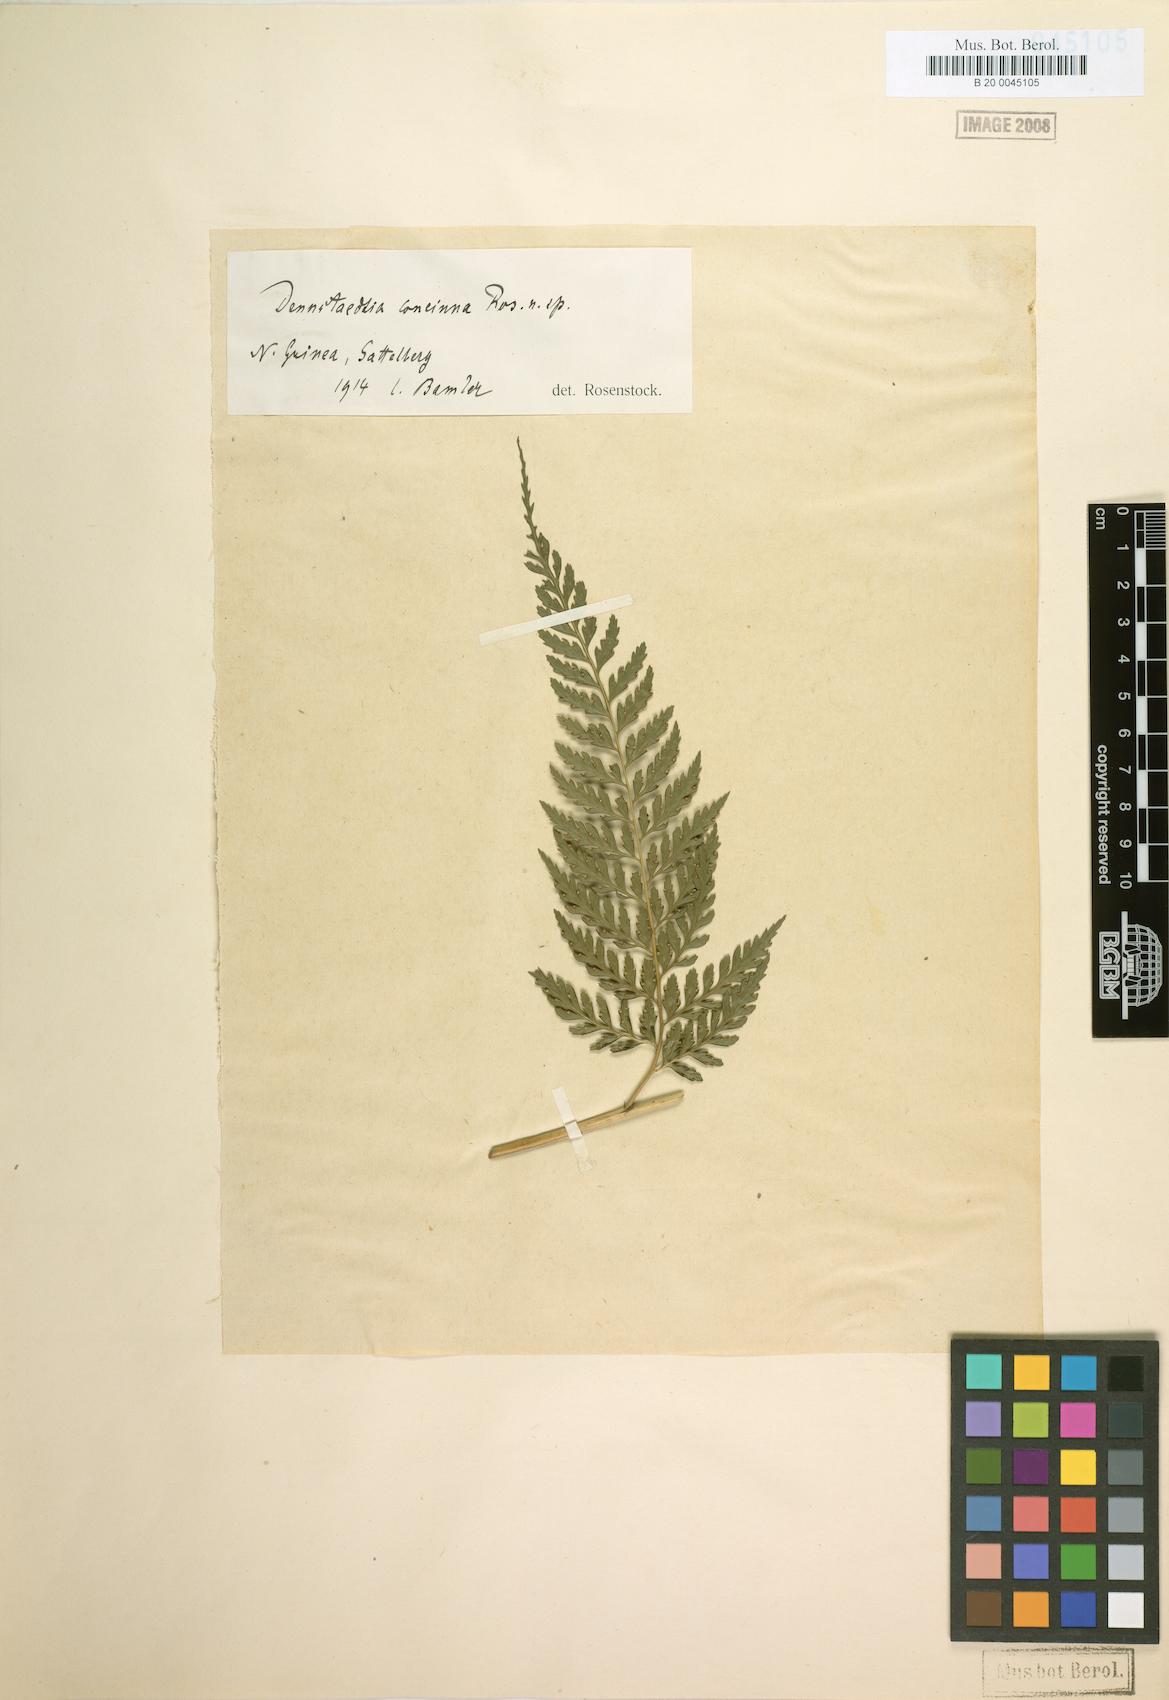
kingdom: Plantae
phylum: Tracheophyta
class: Polypodiopsida
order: Polypodiales
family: Dennstaedtiaceae
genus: Microlepia
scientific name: Microlepia concinna
